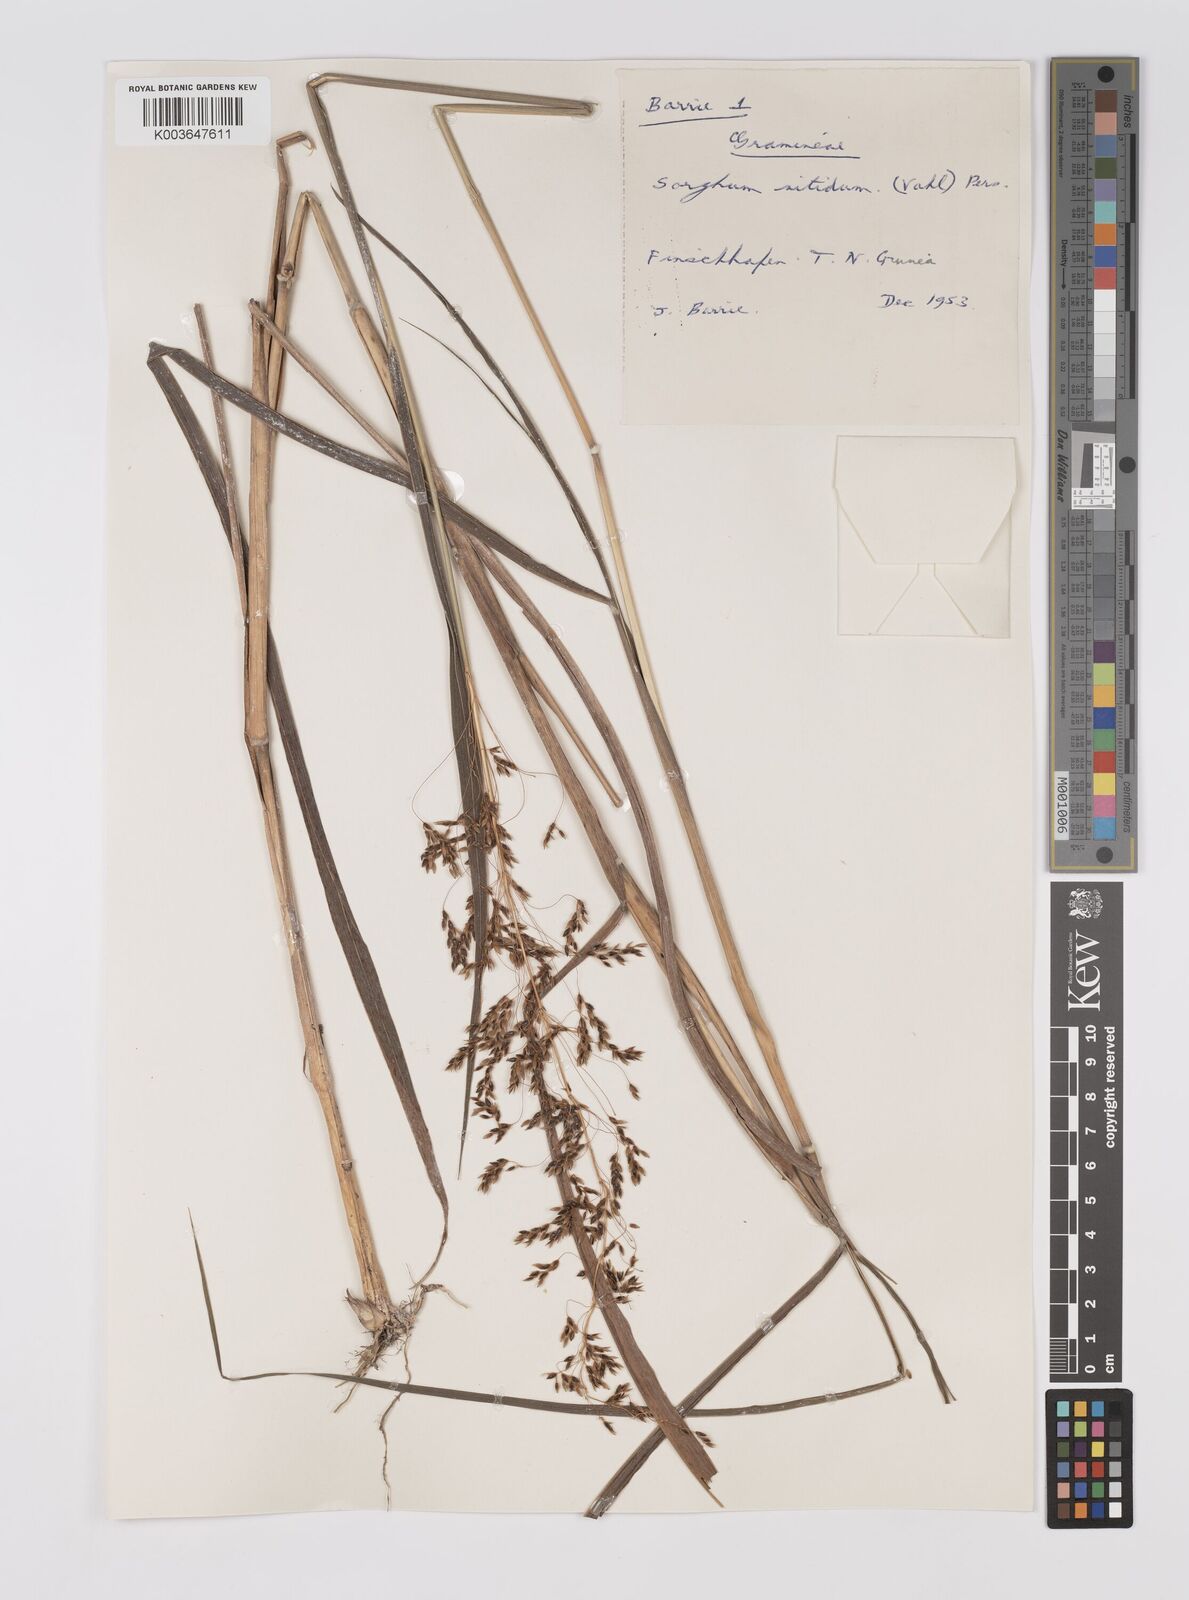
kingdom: Plantae
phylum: Tracheophyta
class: Liliopsida
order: Poales
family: Poaceae
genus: Sorghum
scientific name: Sorghum nitidum
